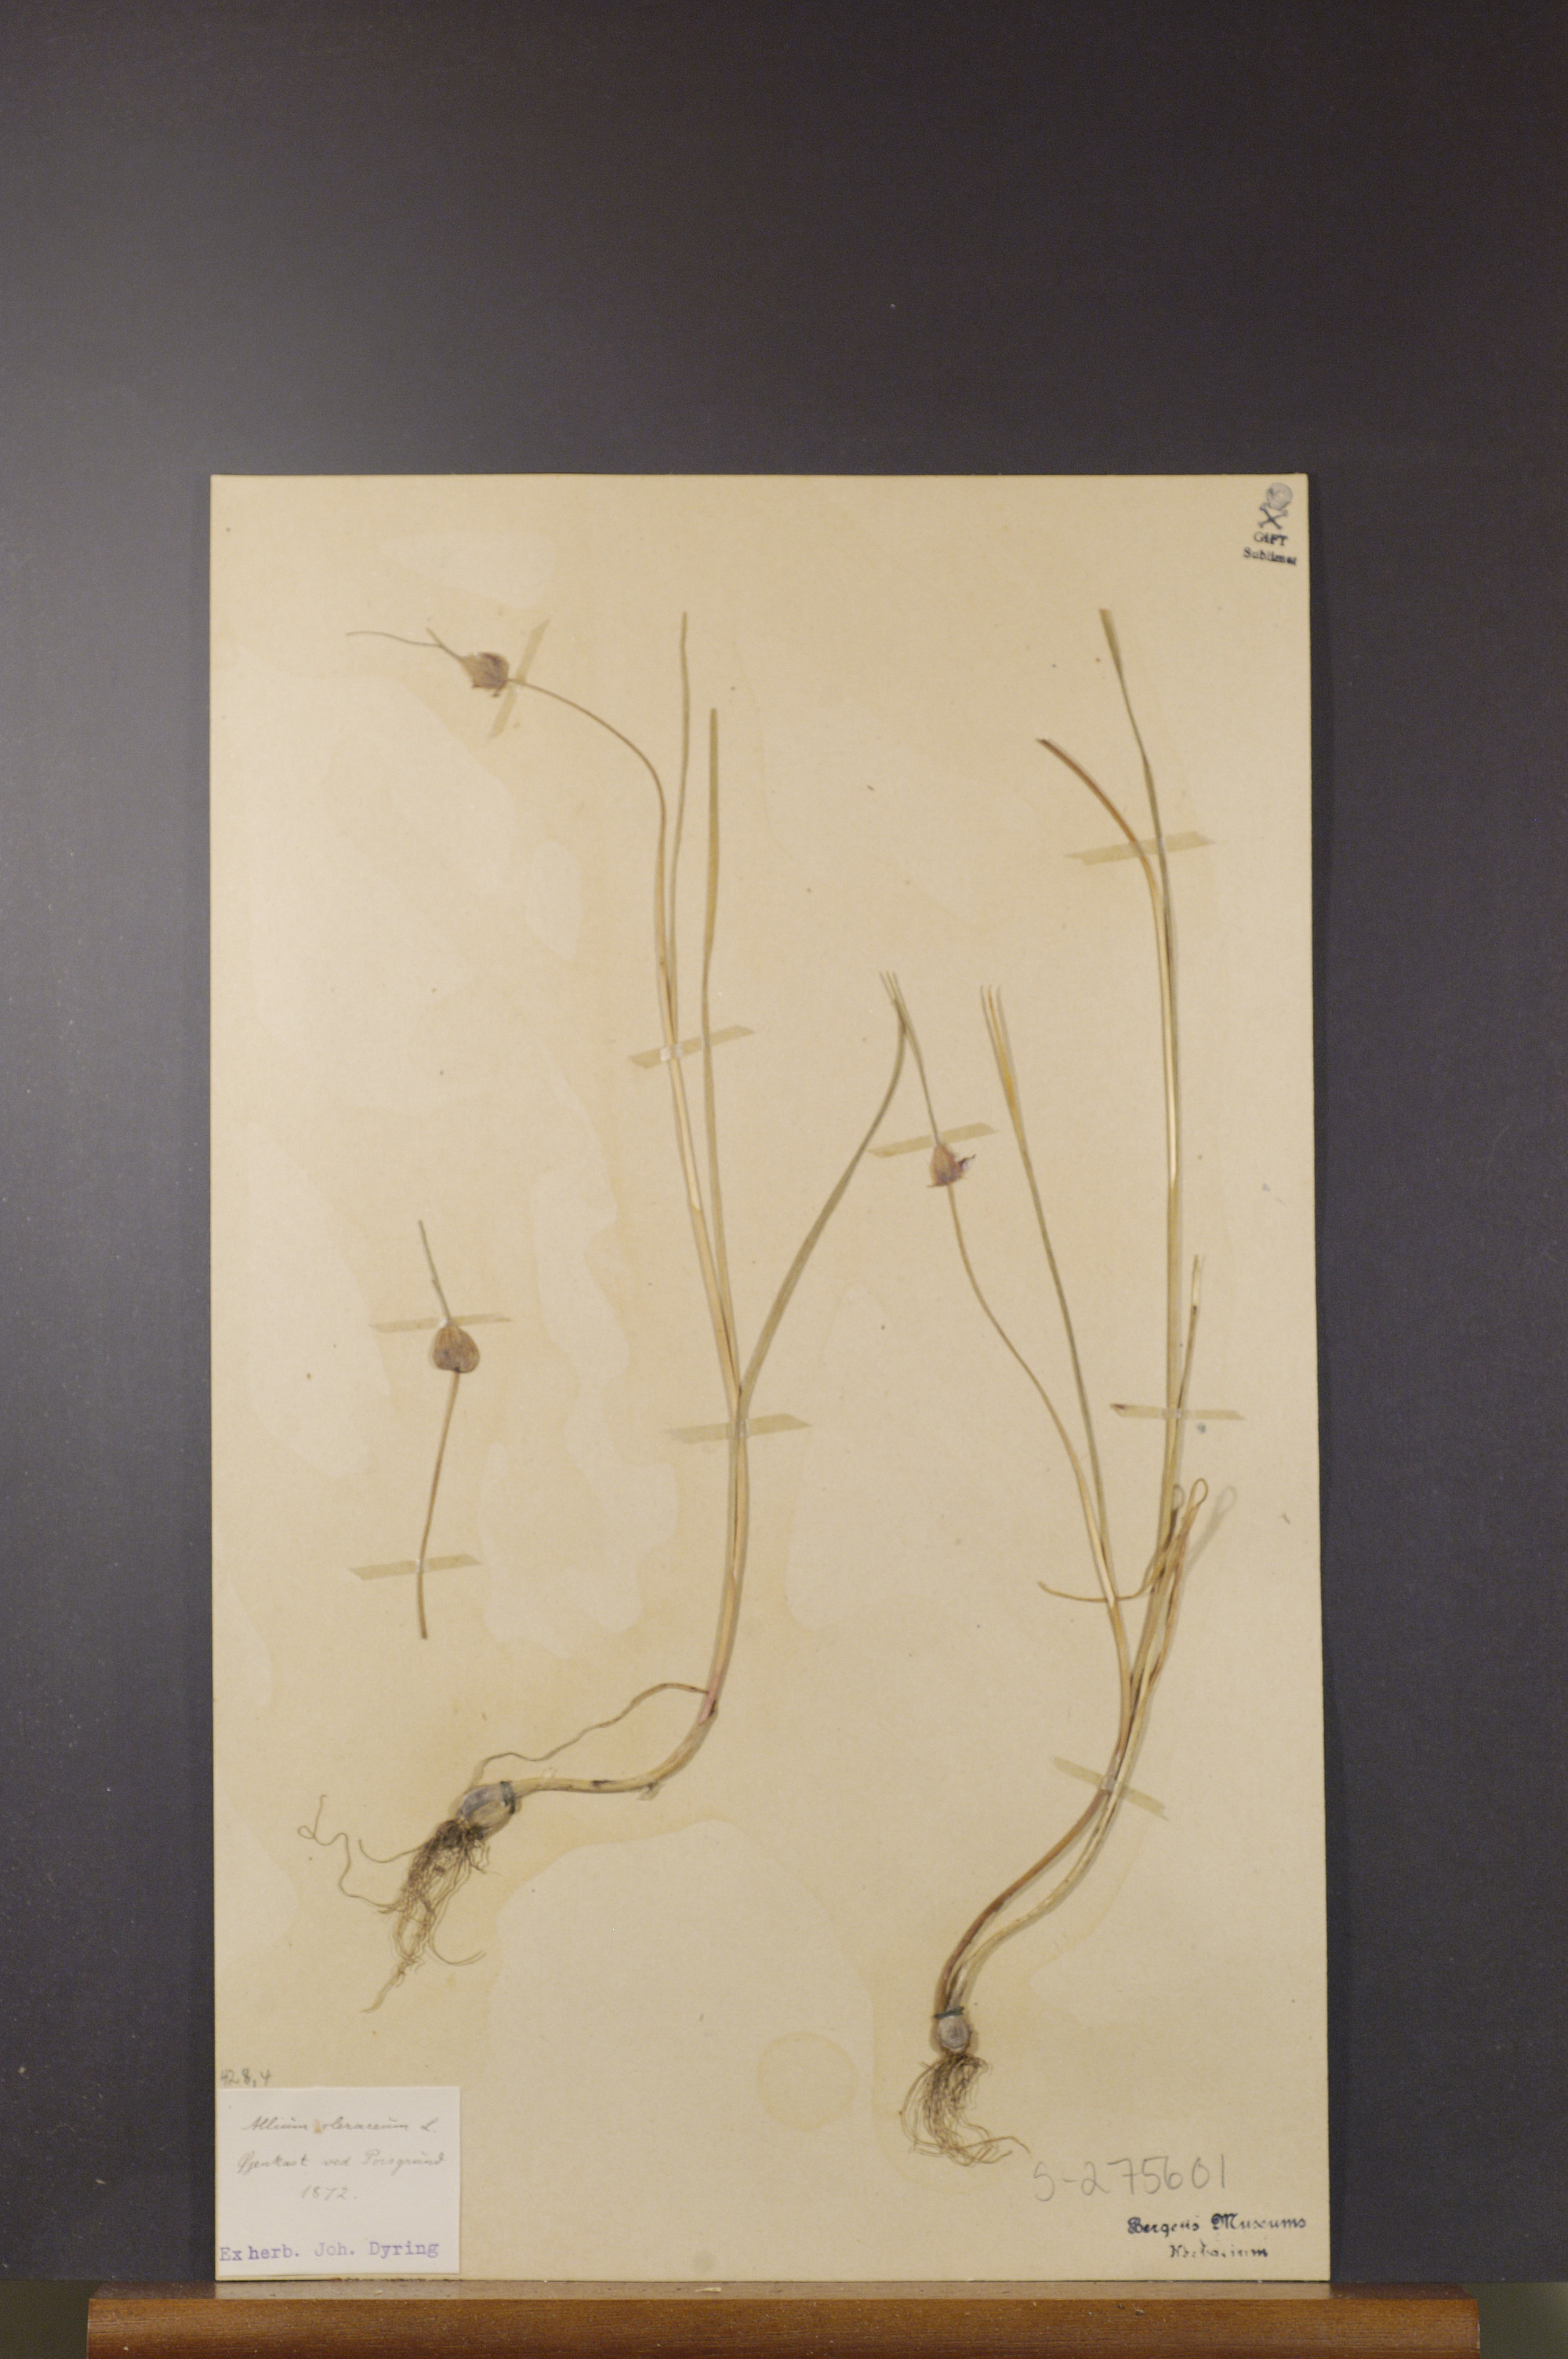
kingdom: Plantae
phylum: Tracheophyta
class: Liliopsida
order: Asparagales
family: Amaryllidaceae
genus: Allium
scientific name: Allium oleraceum
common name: Field garlic
